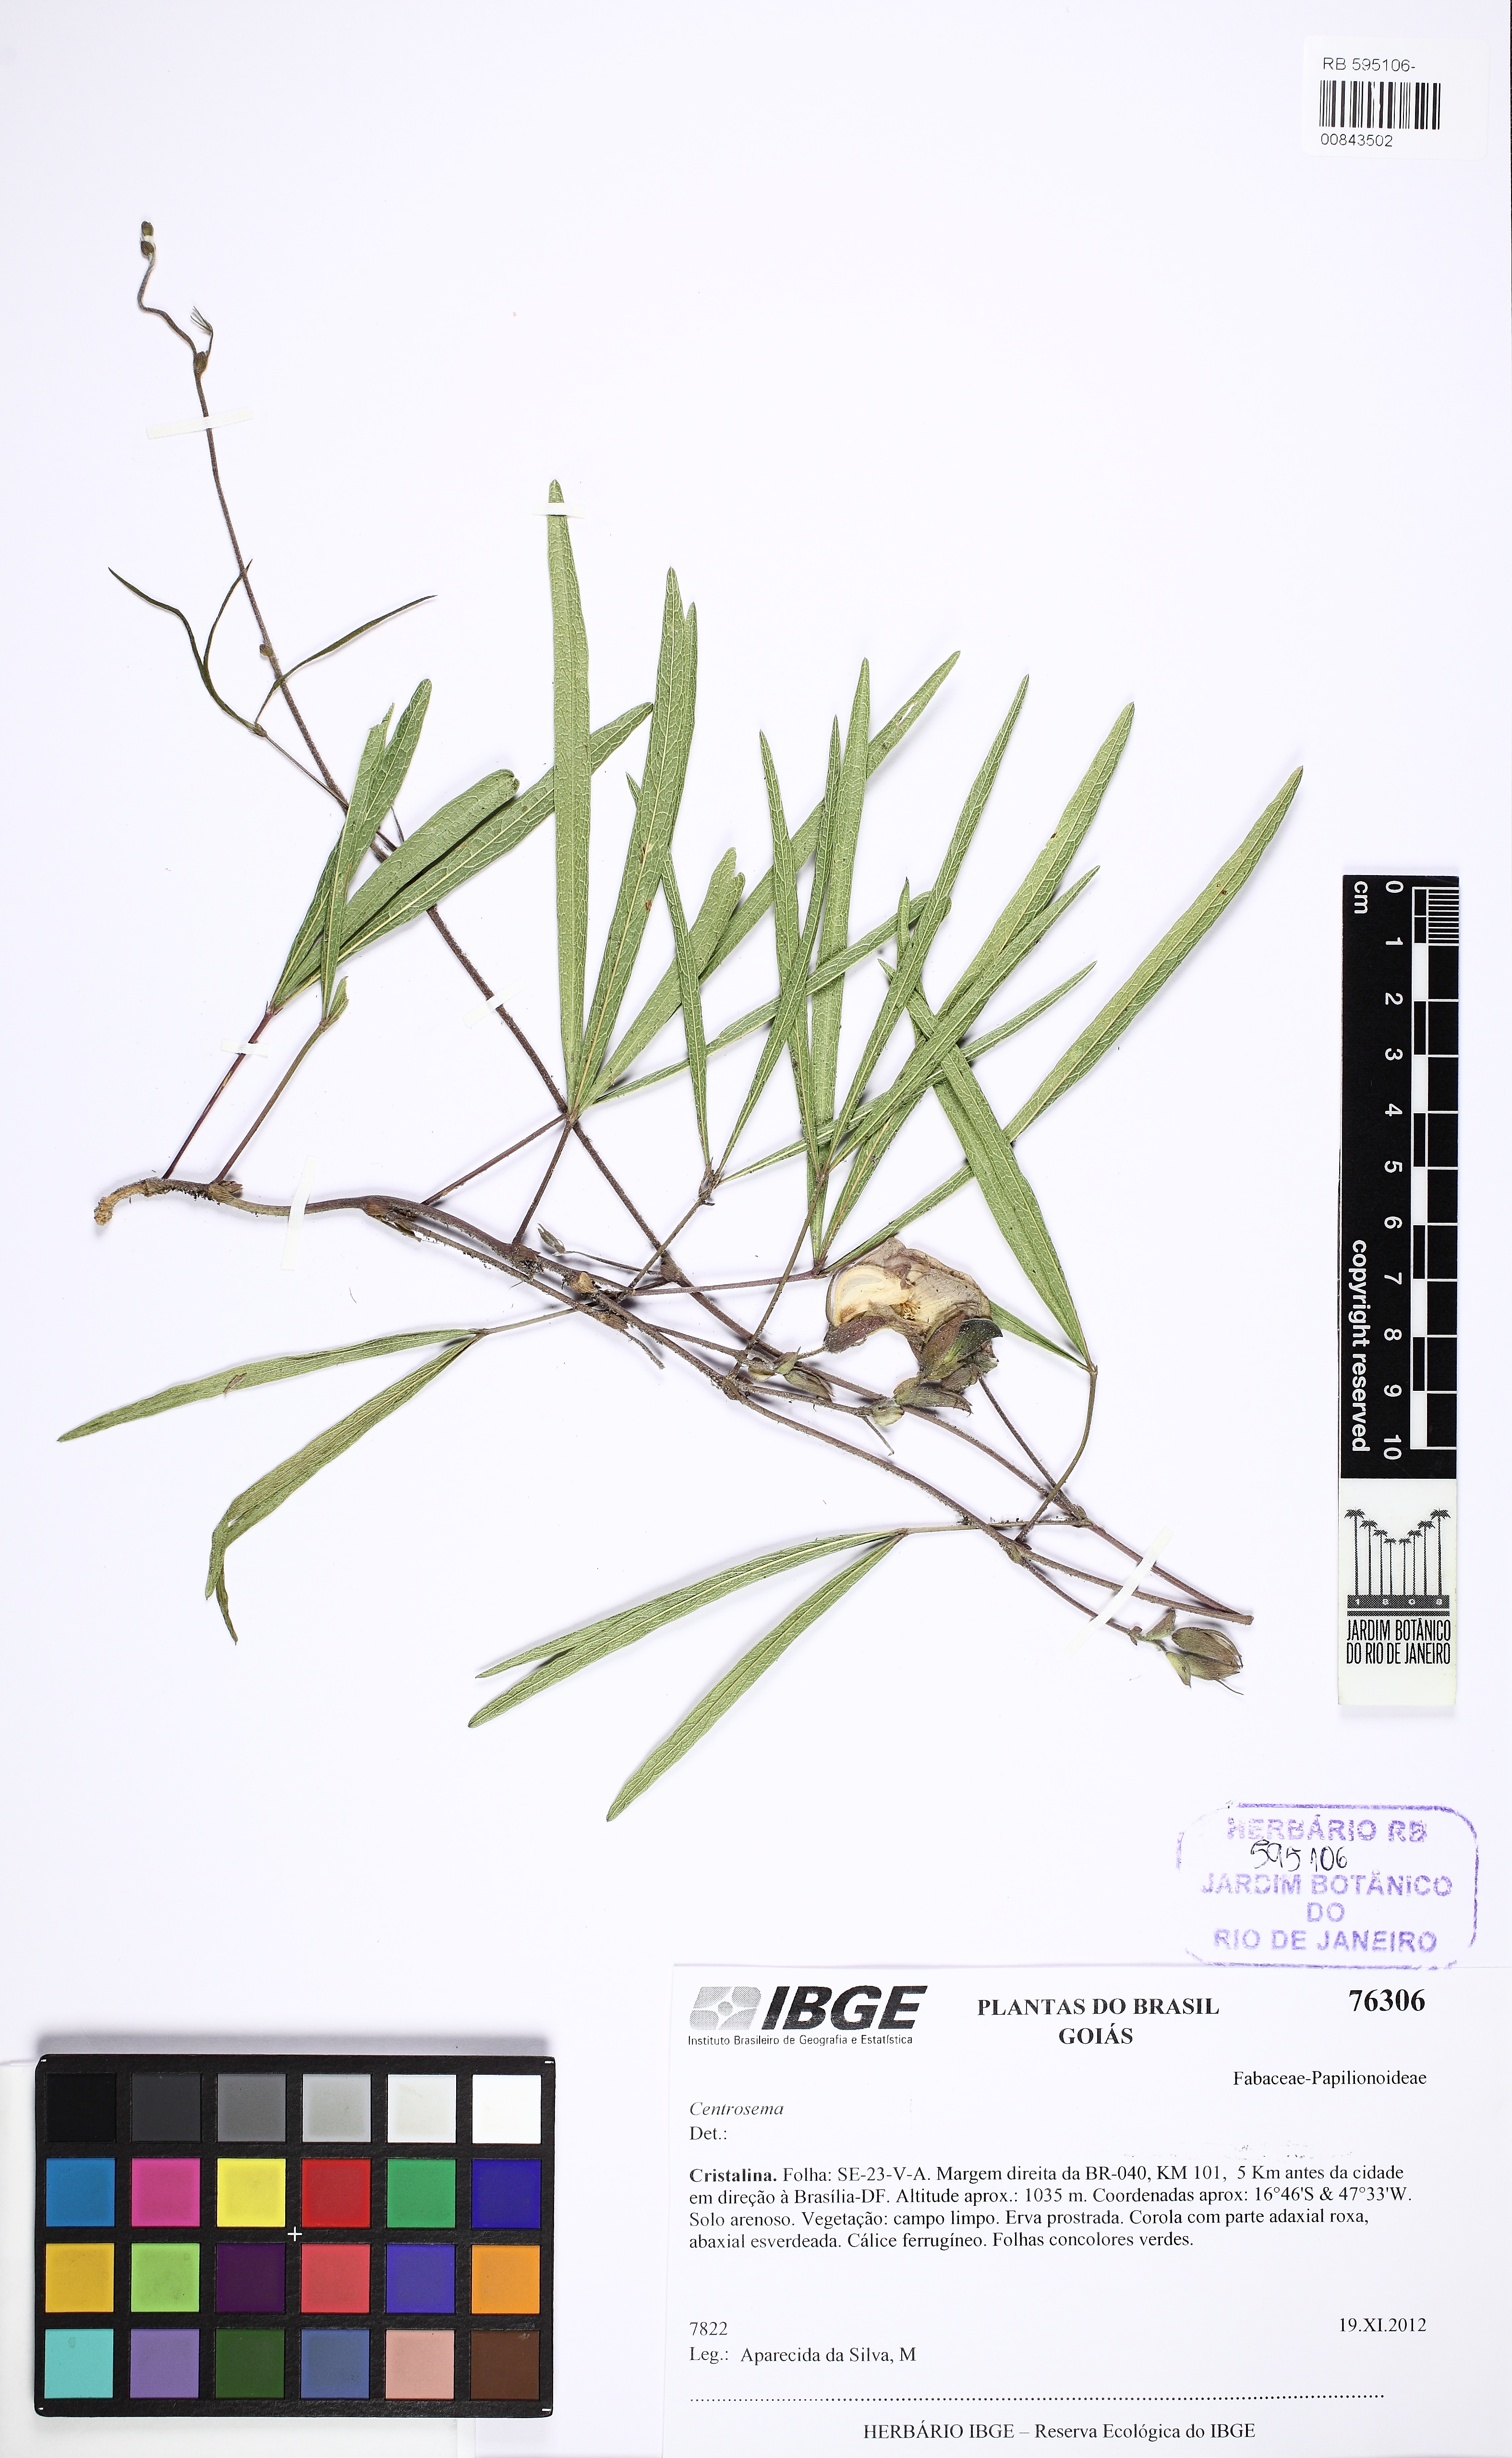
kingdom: Plantae
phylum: Tracheophyta
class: Magnoliopsida
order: Fabales
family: Fabaceae
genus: Centrosema
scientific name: Centrosema venosum
